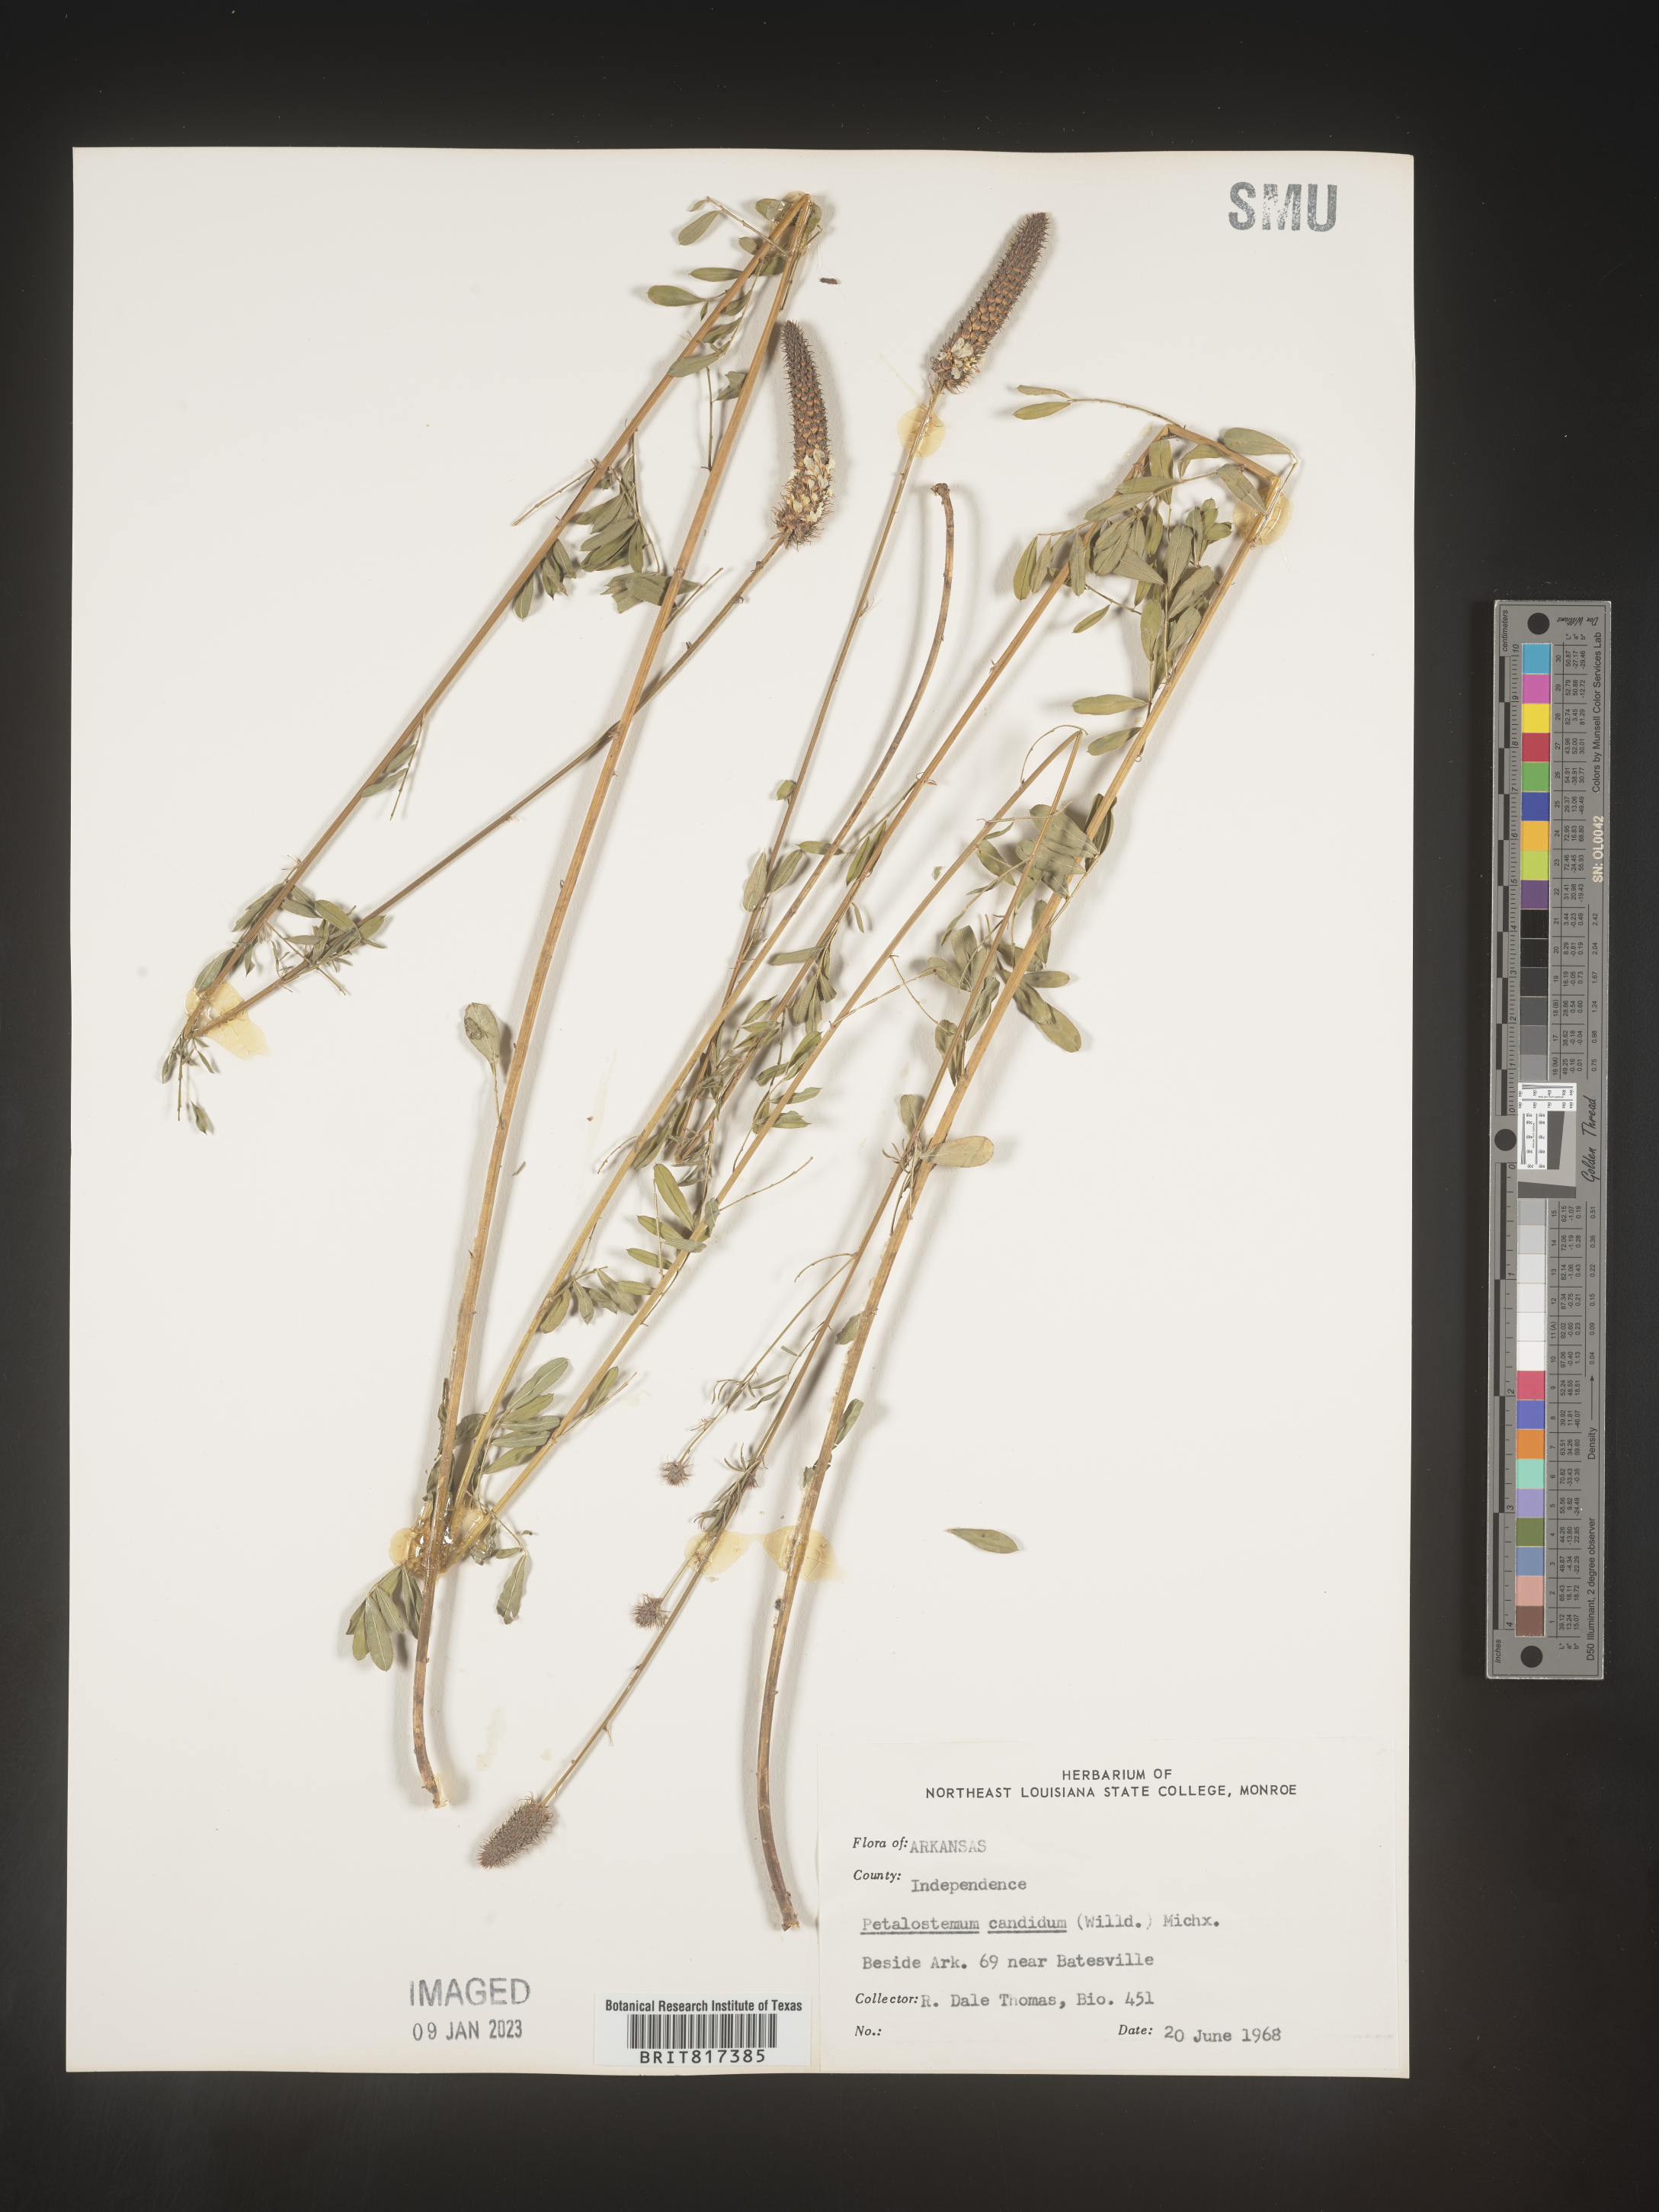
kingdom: Plantae
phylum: Tracheophyta
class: Magnoliopsida
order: Fabales
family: Fabaceae
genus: Dalea
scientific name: Dalea candida
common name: White prairie-clover
